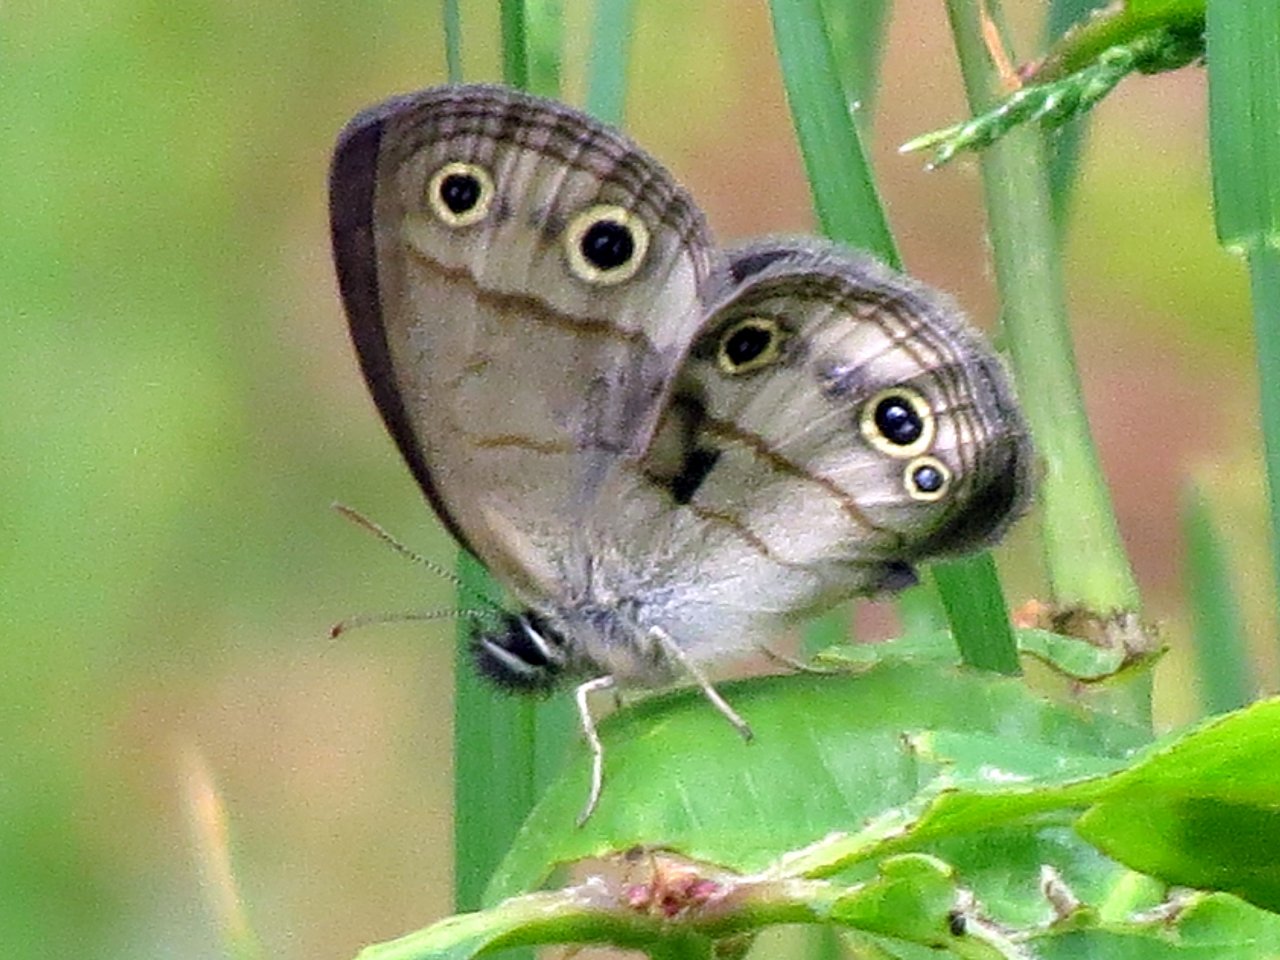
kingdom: Animalia
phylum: Arthropoda
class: Insecta
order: Lepidoptera
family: Nymphalidae
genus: Euptychia
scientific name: Euptychia cymela
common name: Little Wood Satyr
